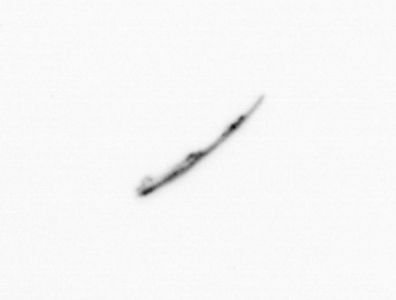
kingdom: Chromista
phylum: Ochrophyta
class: Bacillariophyceae
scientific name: Bacillariophyceae
